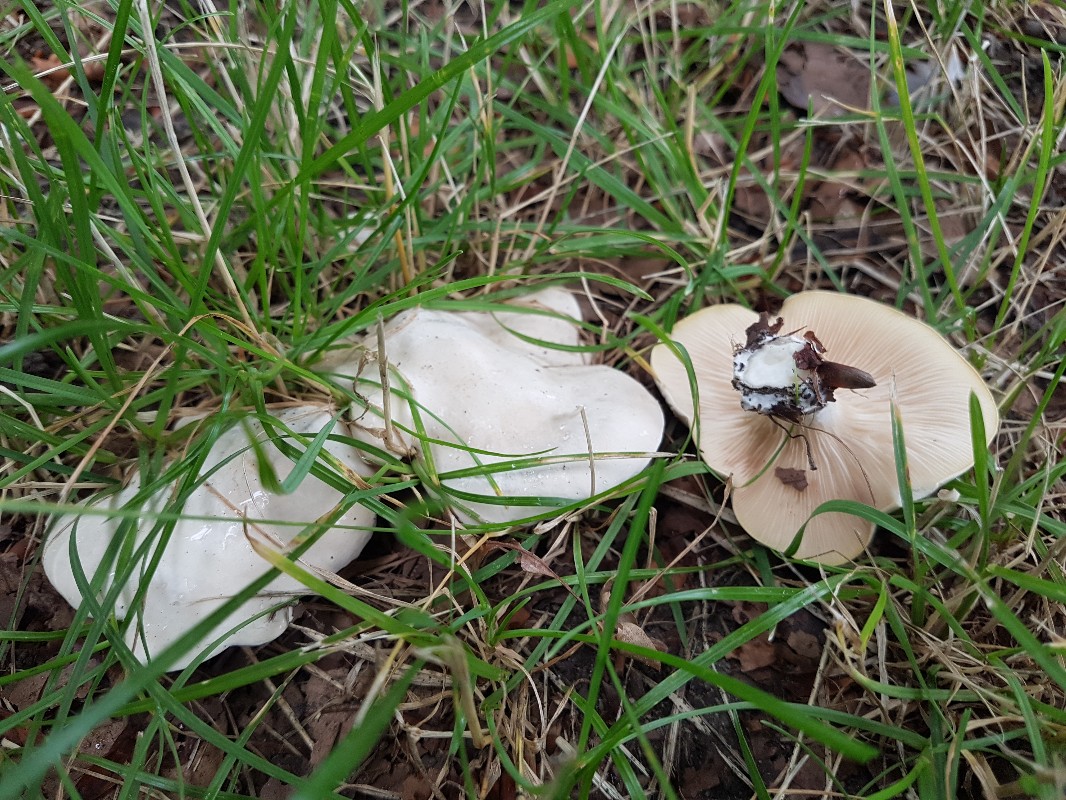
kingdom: Fungi
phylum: Basidiomycota
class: Agaricomycetes
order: Agaricales
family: Entolomataceae
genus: Clitopilus
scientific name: Clitopilus prunulus
